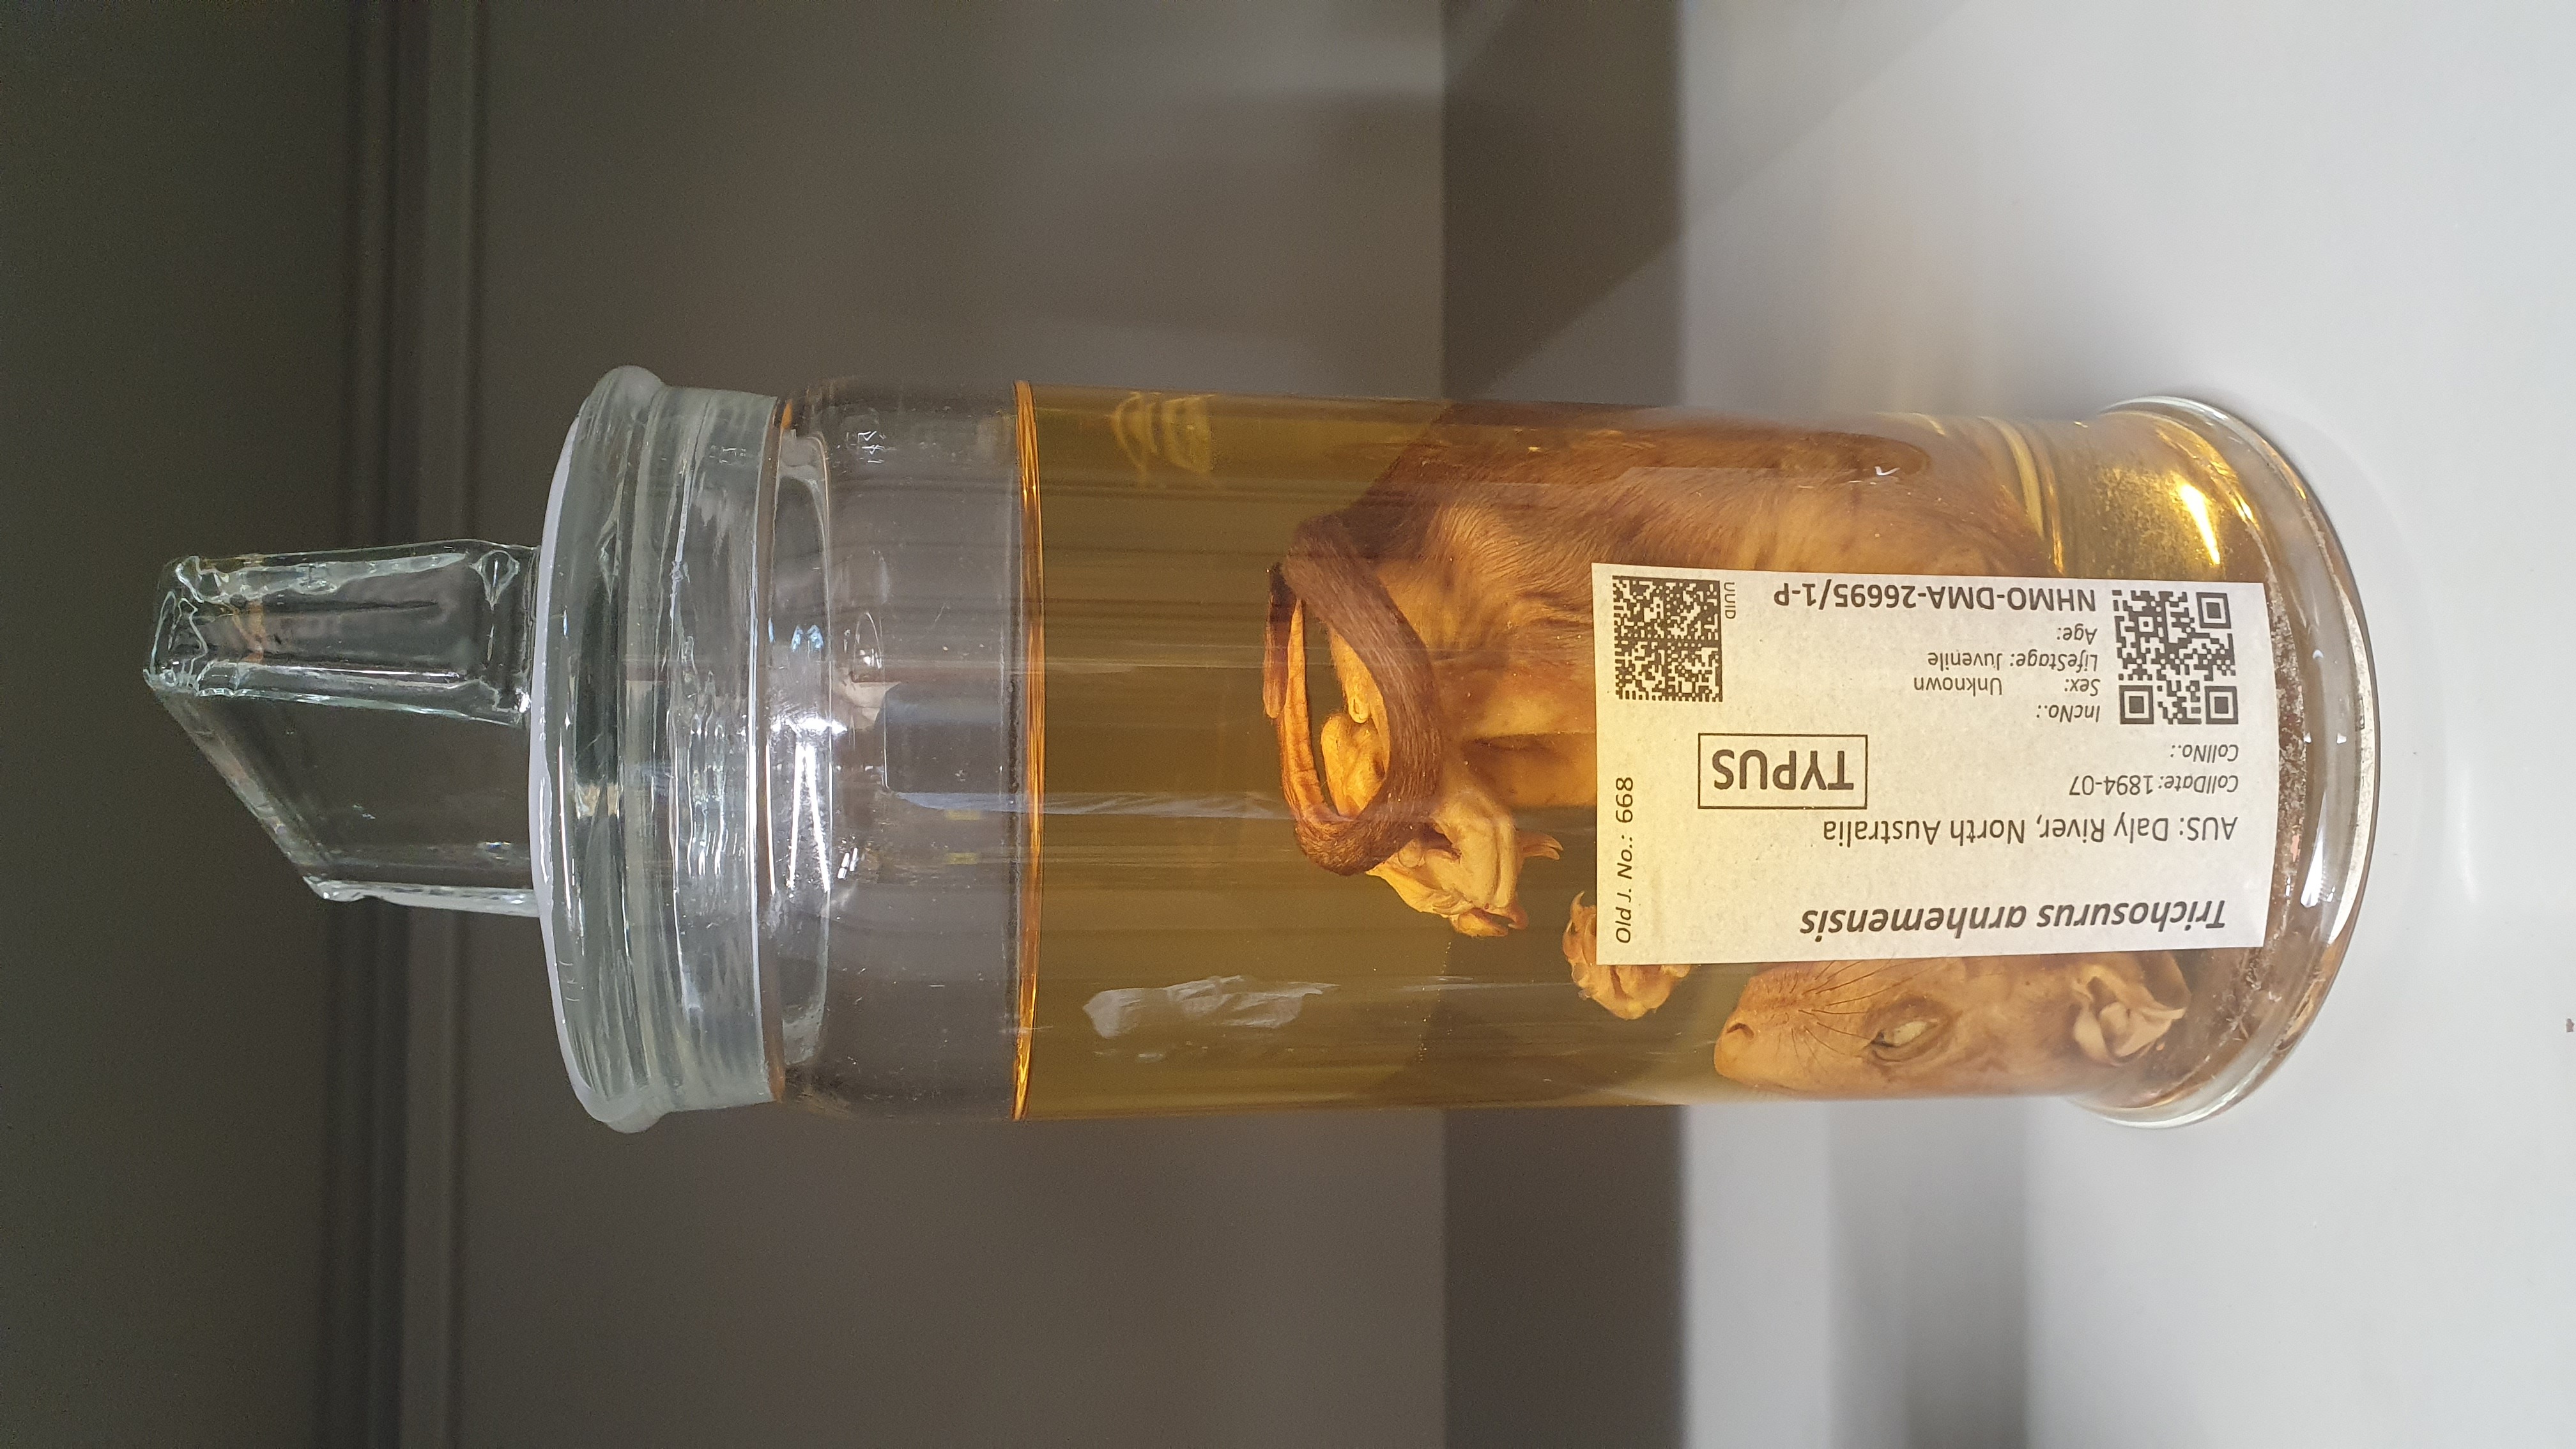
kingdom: Animalia
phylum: Chordata
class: Mammalia
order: Diprotodontia
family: Phalangeridae
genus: Trichosurus
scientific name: Trichosurus arnhemensis
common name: Northern brushtail
